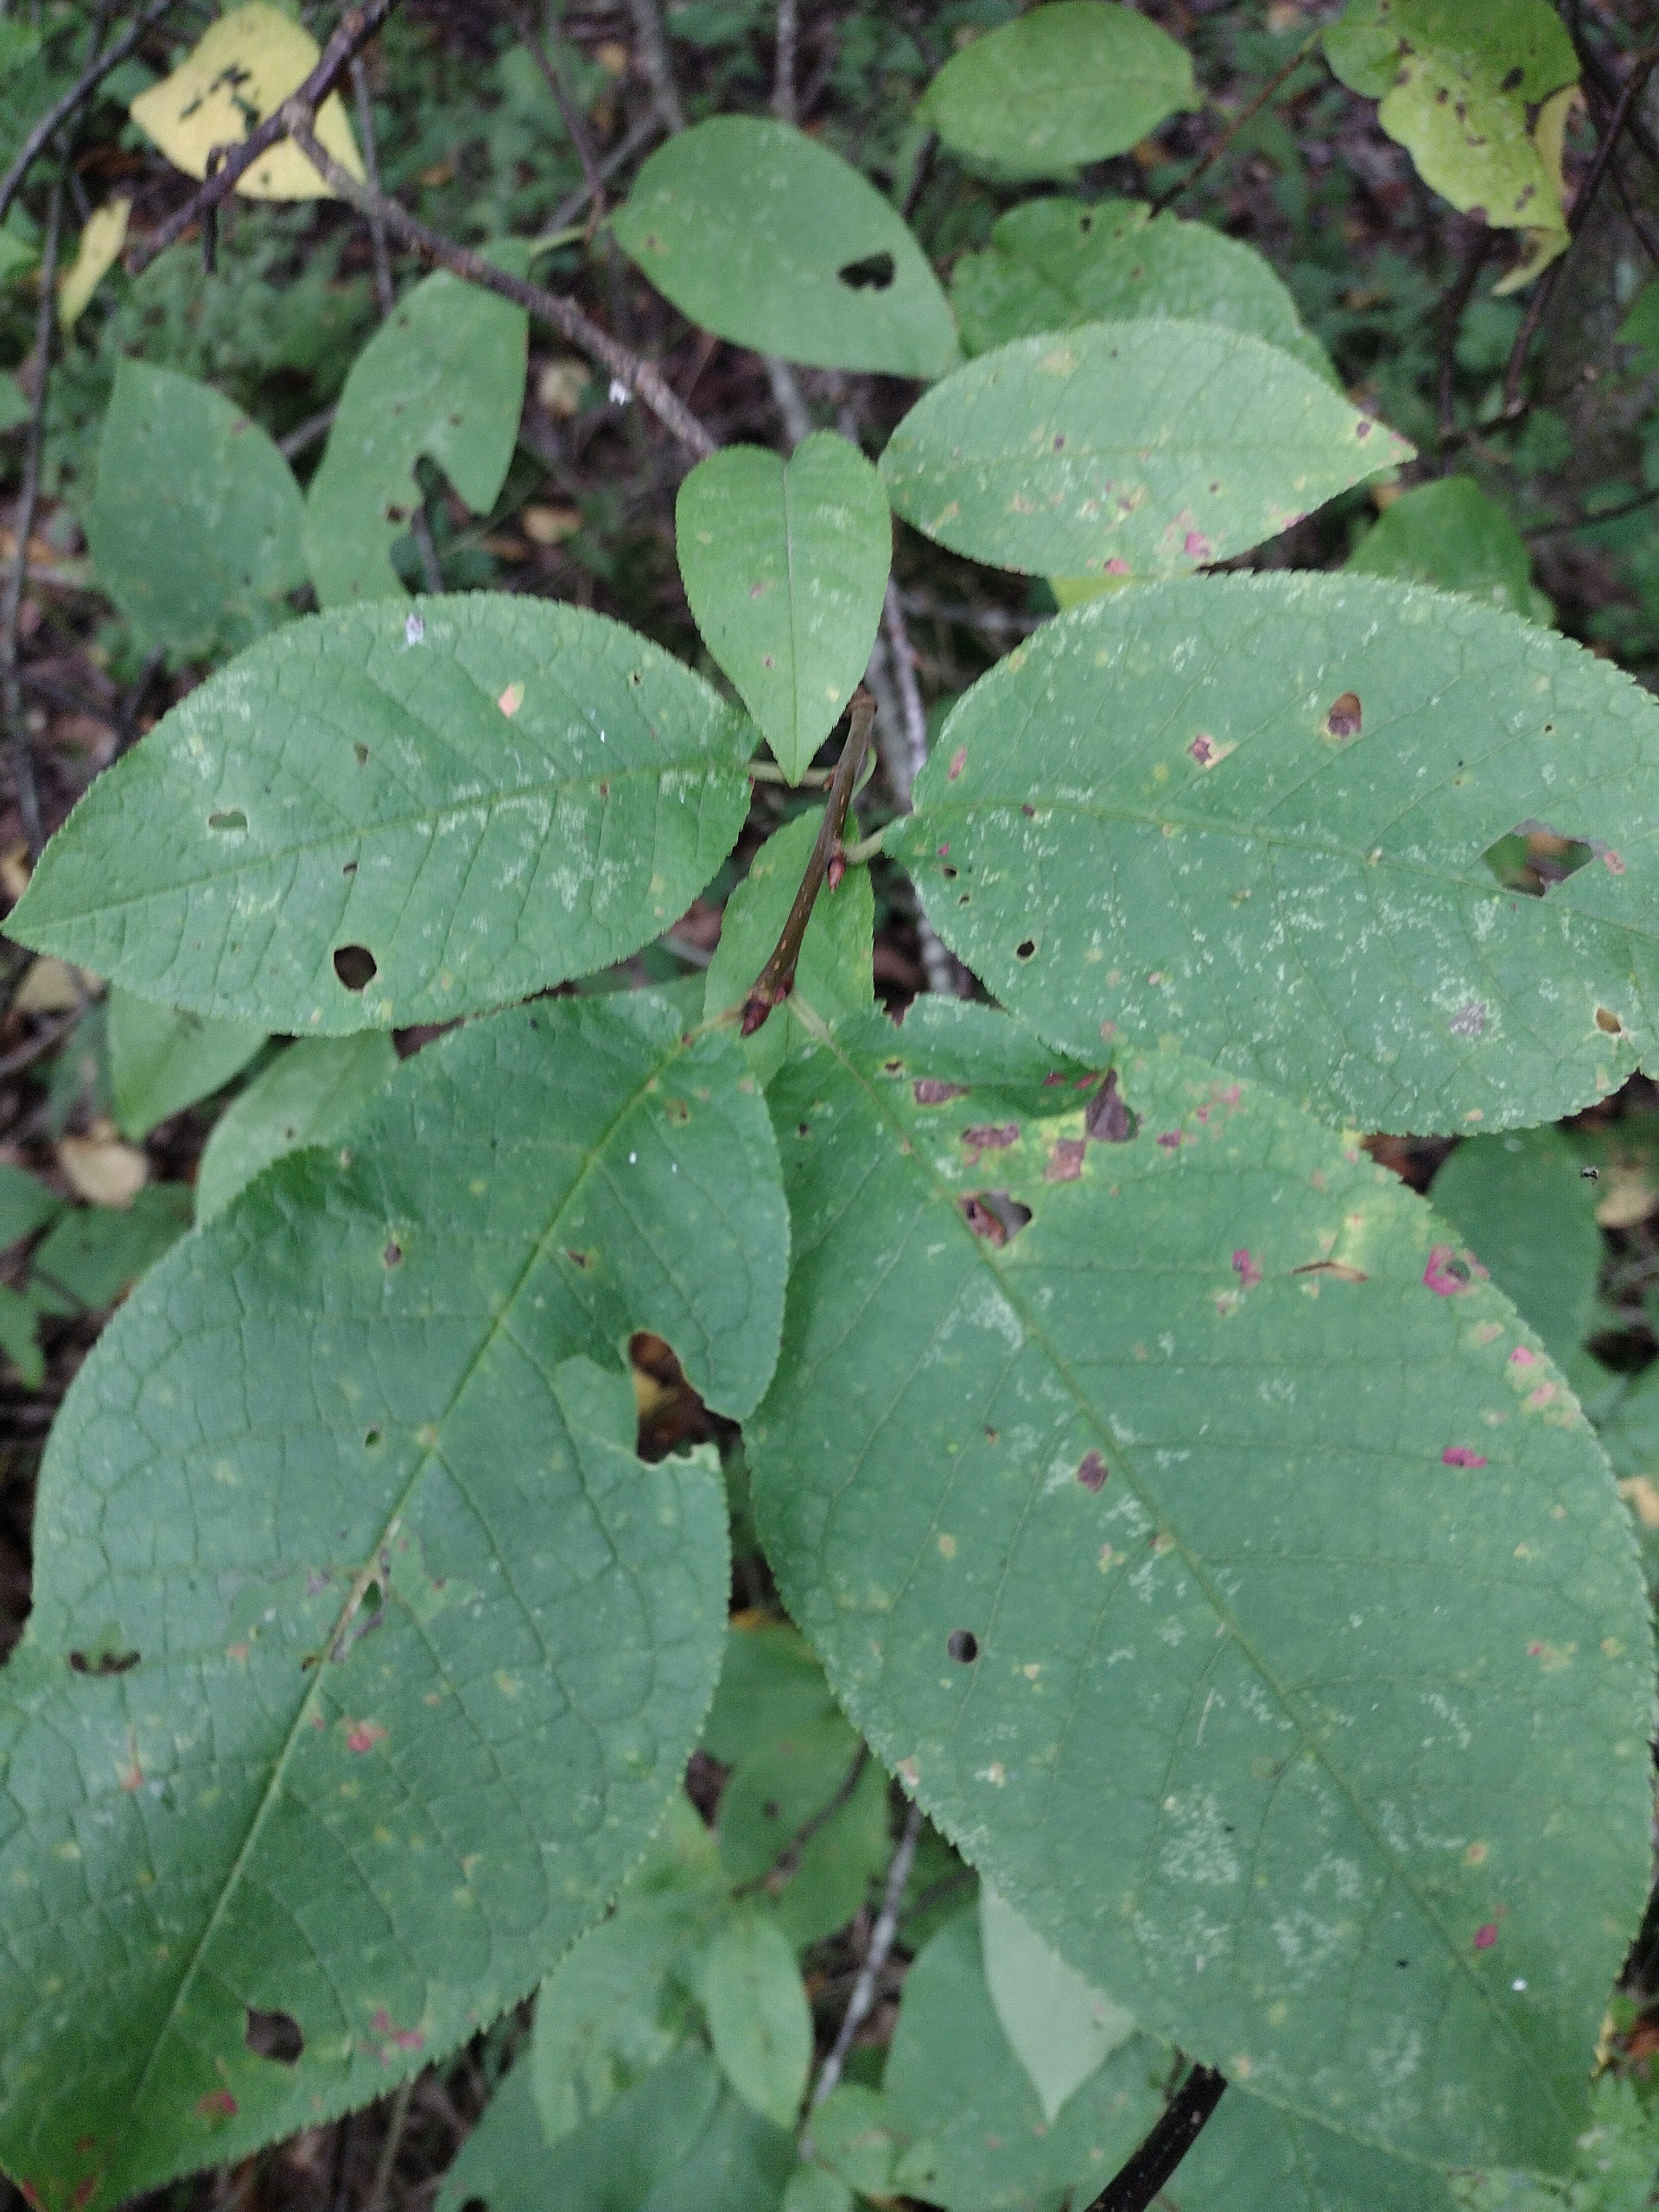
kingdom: Plantae
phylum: Tracheophyta
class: Magnoliopsida
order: Rosales
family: Rosaceae
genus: Prunus
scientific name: Prunus padus
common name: Almindelig hæg
